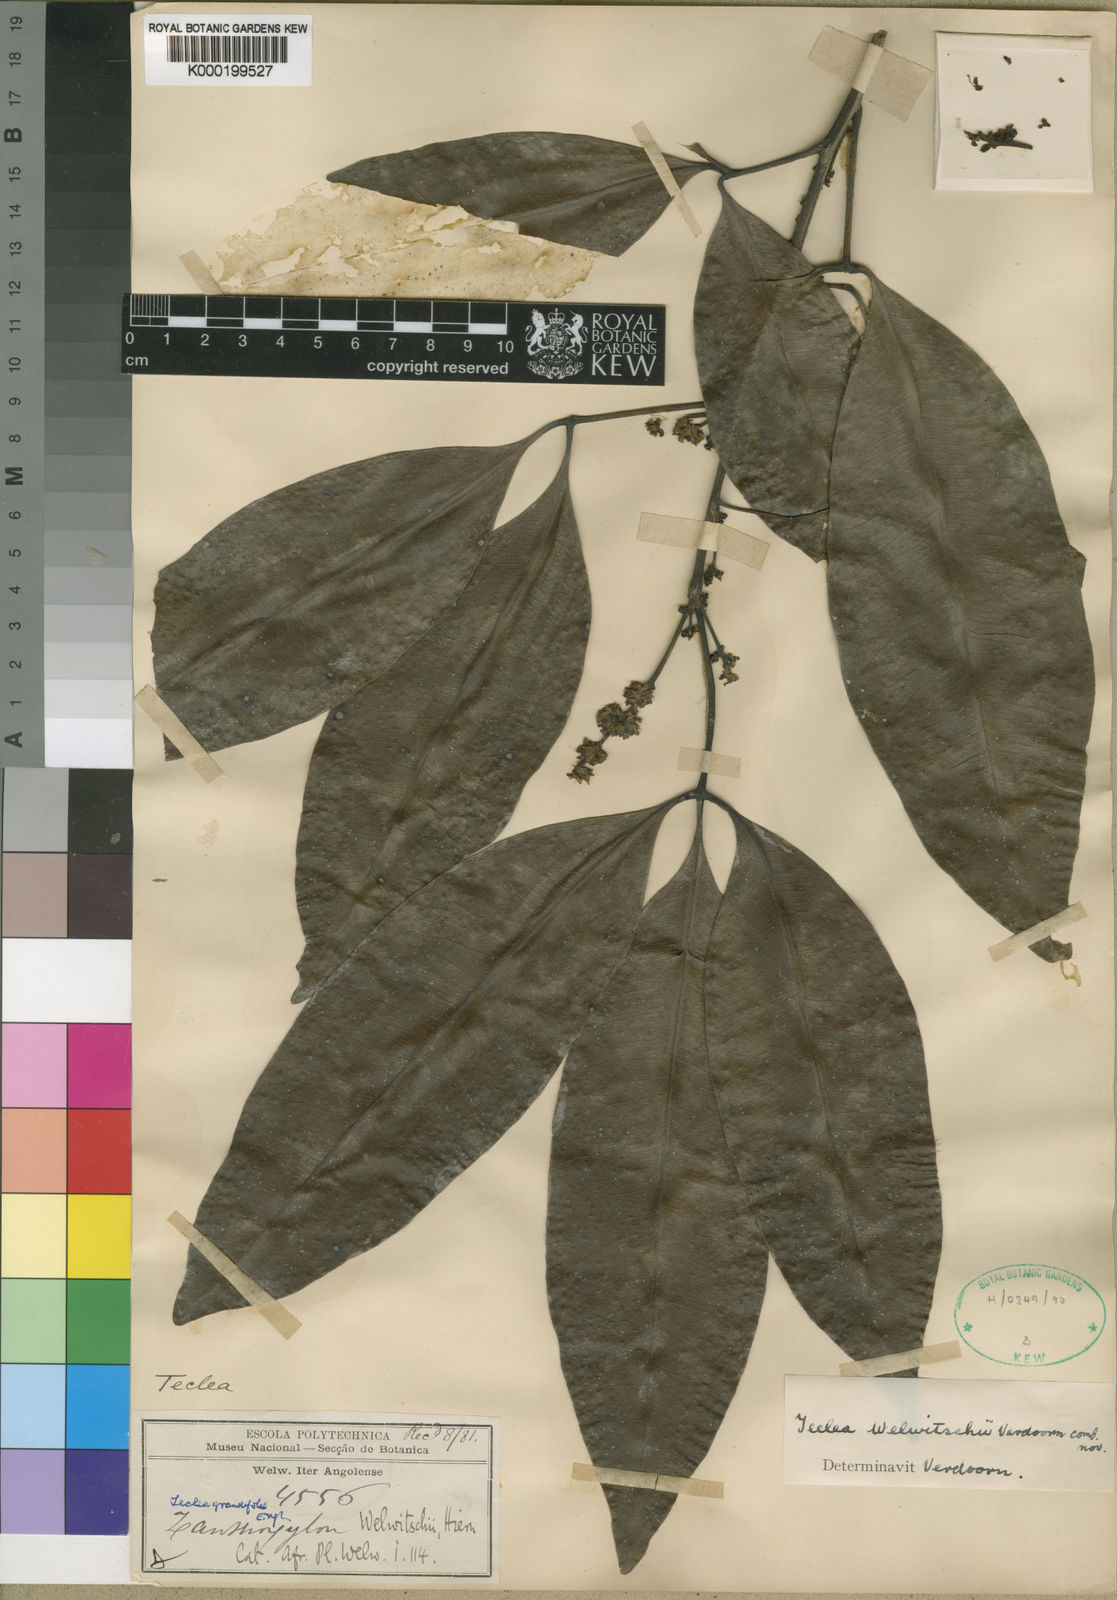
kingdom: Plantae
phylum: Tracheophyta
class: Magnoliopsida
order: Sapindales
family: Rutaceae
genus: Vepris
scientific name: Vepris grandifolia
